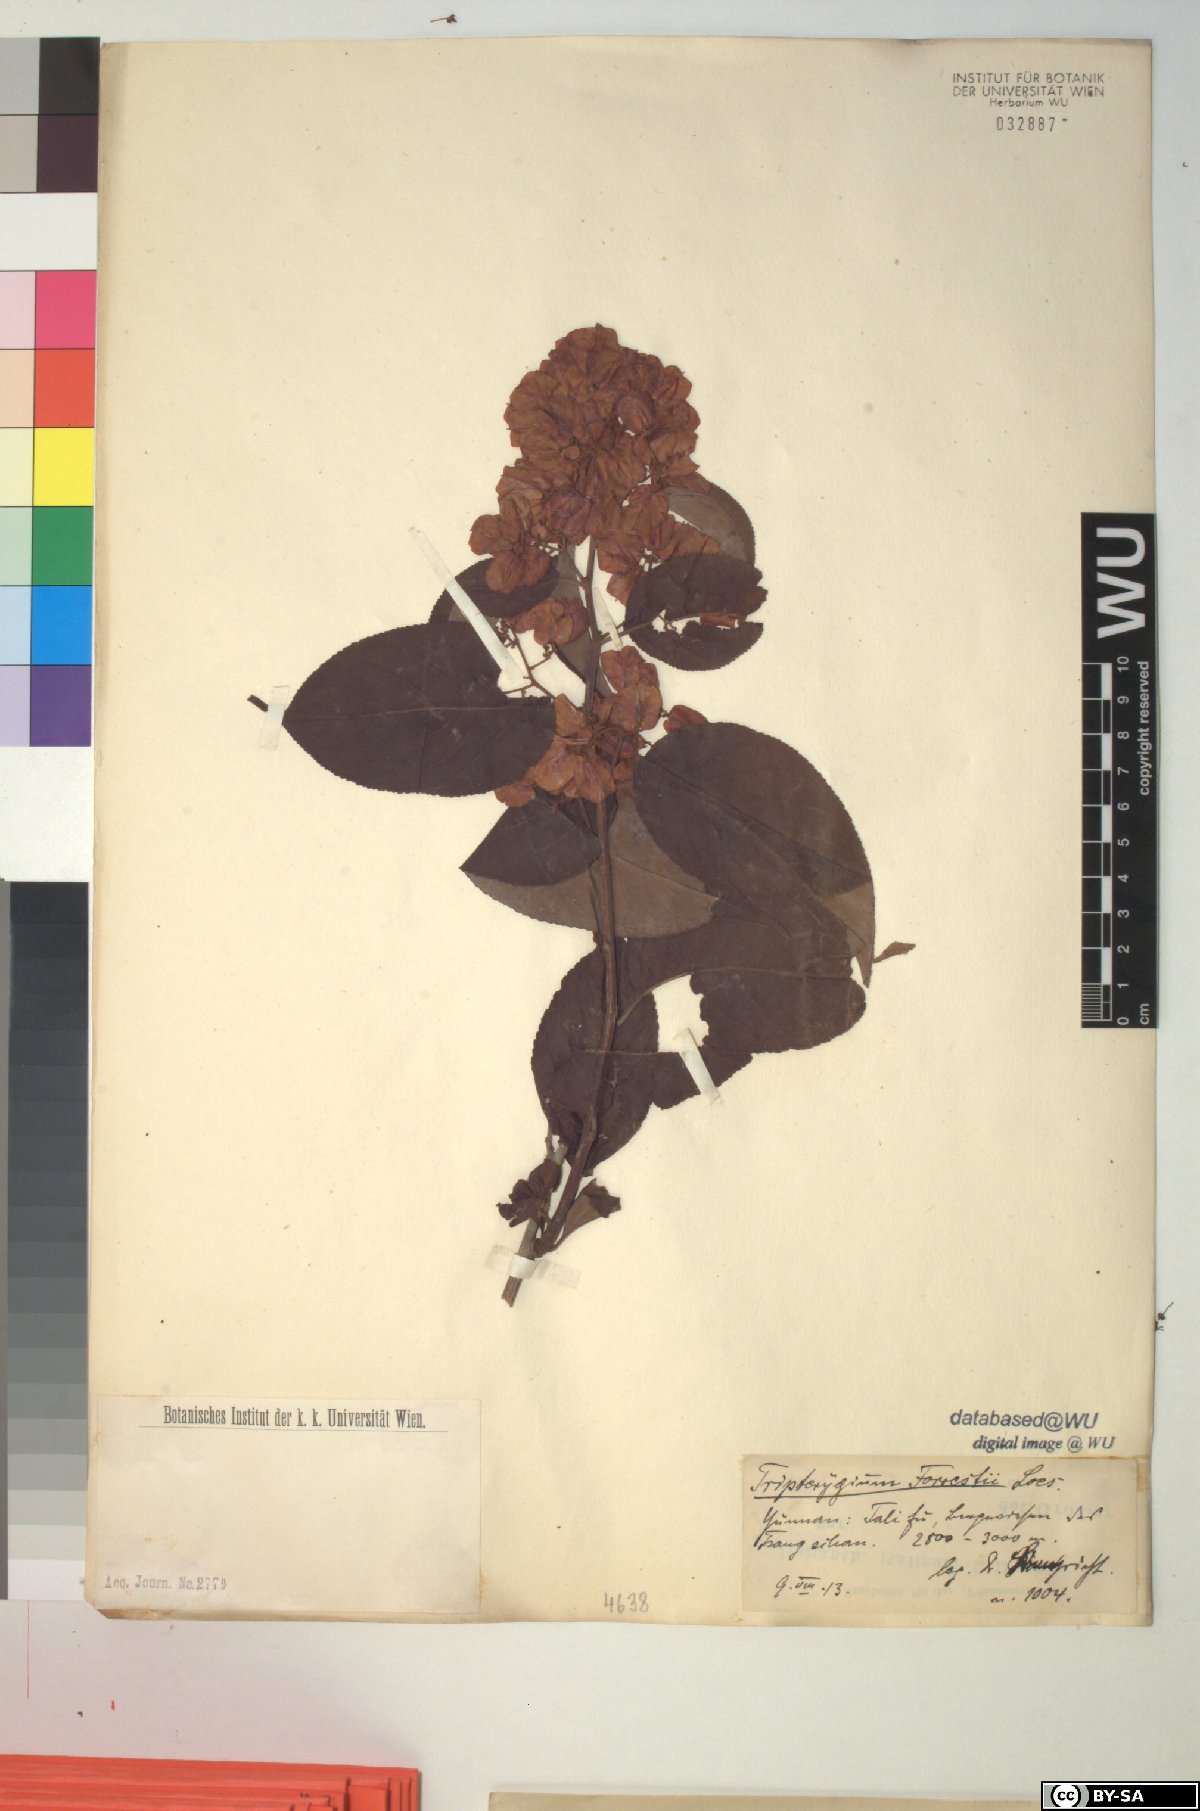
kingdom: Plantae
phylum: Tracheophyta
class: Magnoliopsida
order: Celastrales
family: Celastraceae
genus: Tripterygium
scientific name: Tripterygium wilfordii
